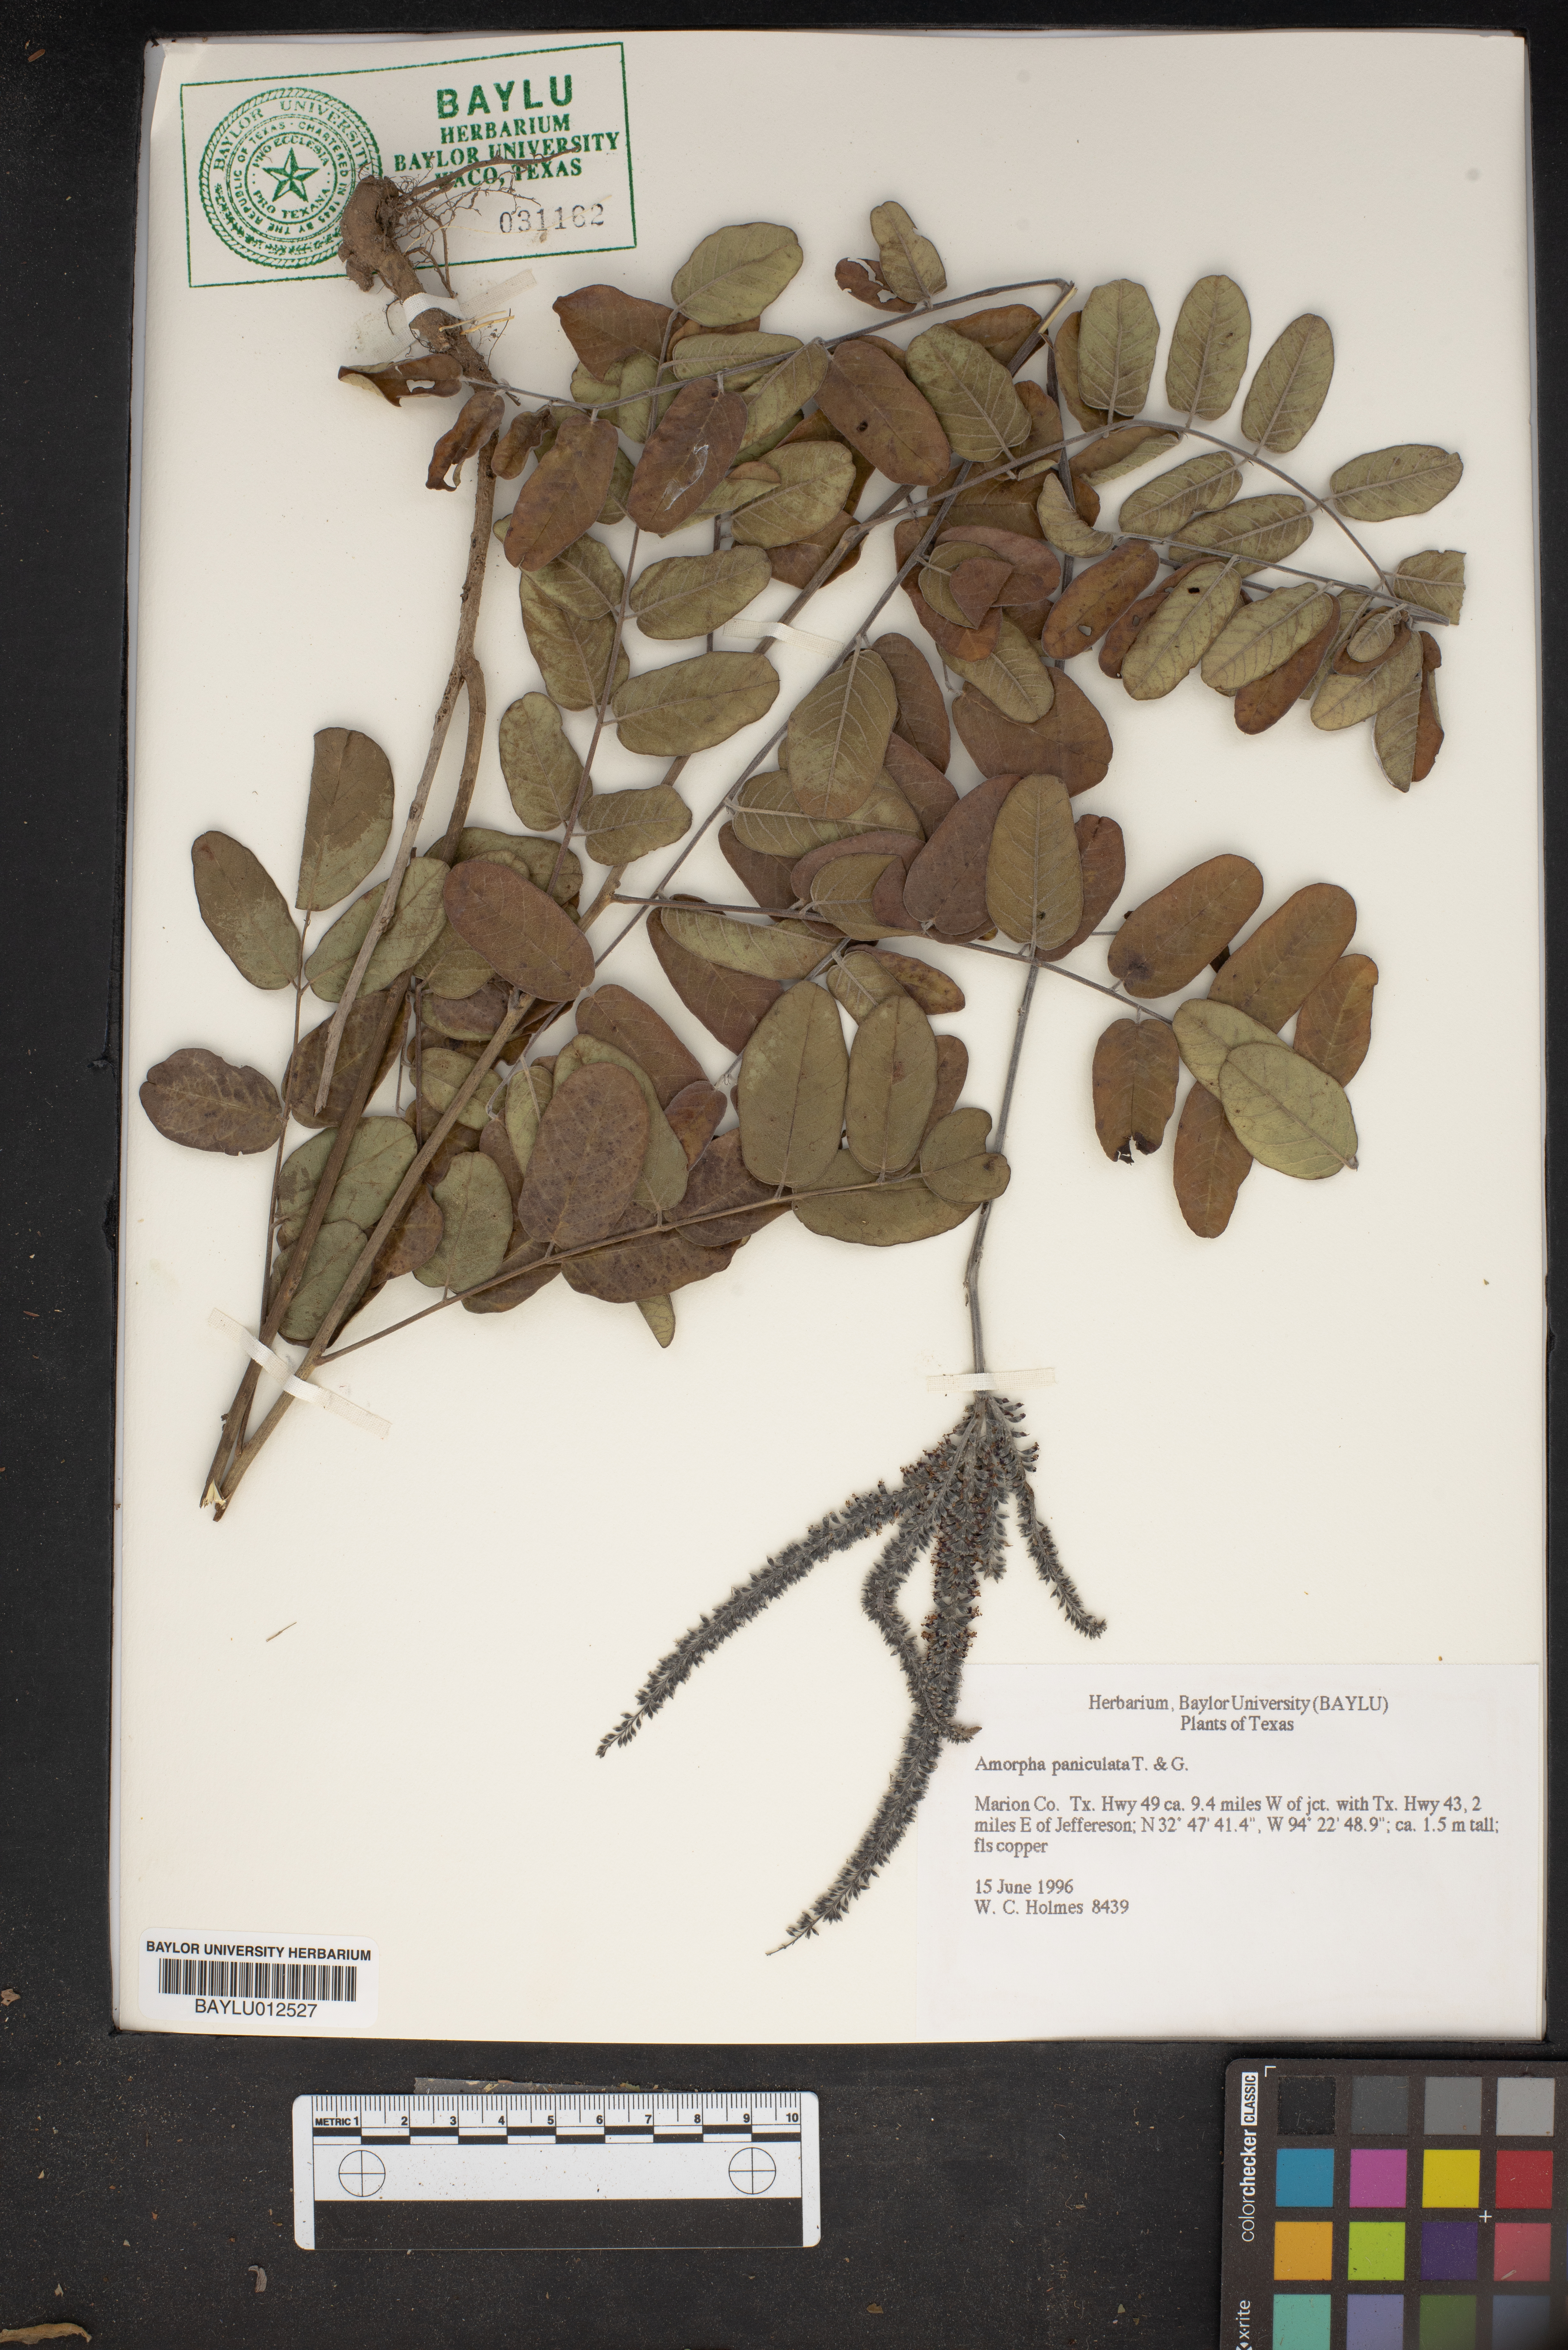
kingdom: Plantae
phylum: Tracheophyta
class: Magnoliopsida
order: Fabales
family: Fabaceae
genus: Amorpha
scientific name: Amorpha paniculata
